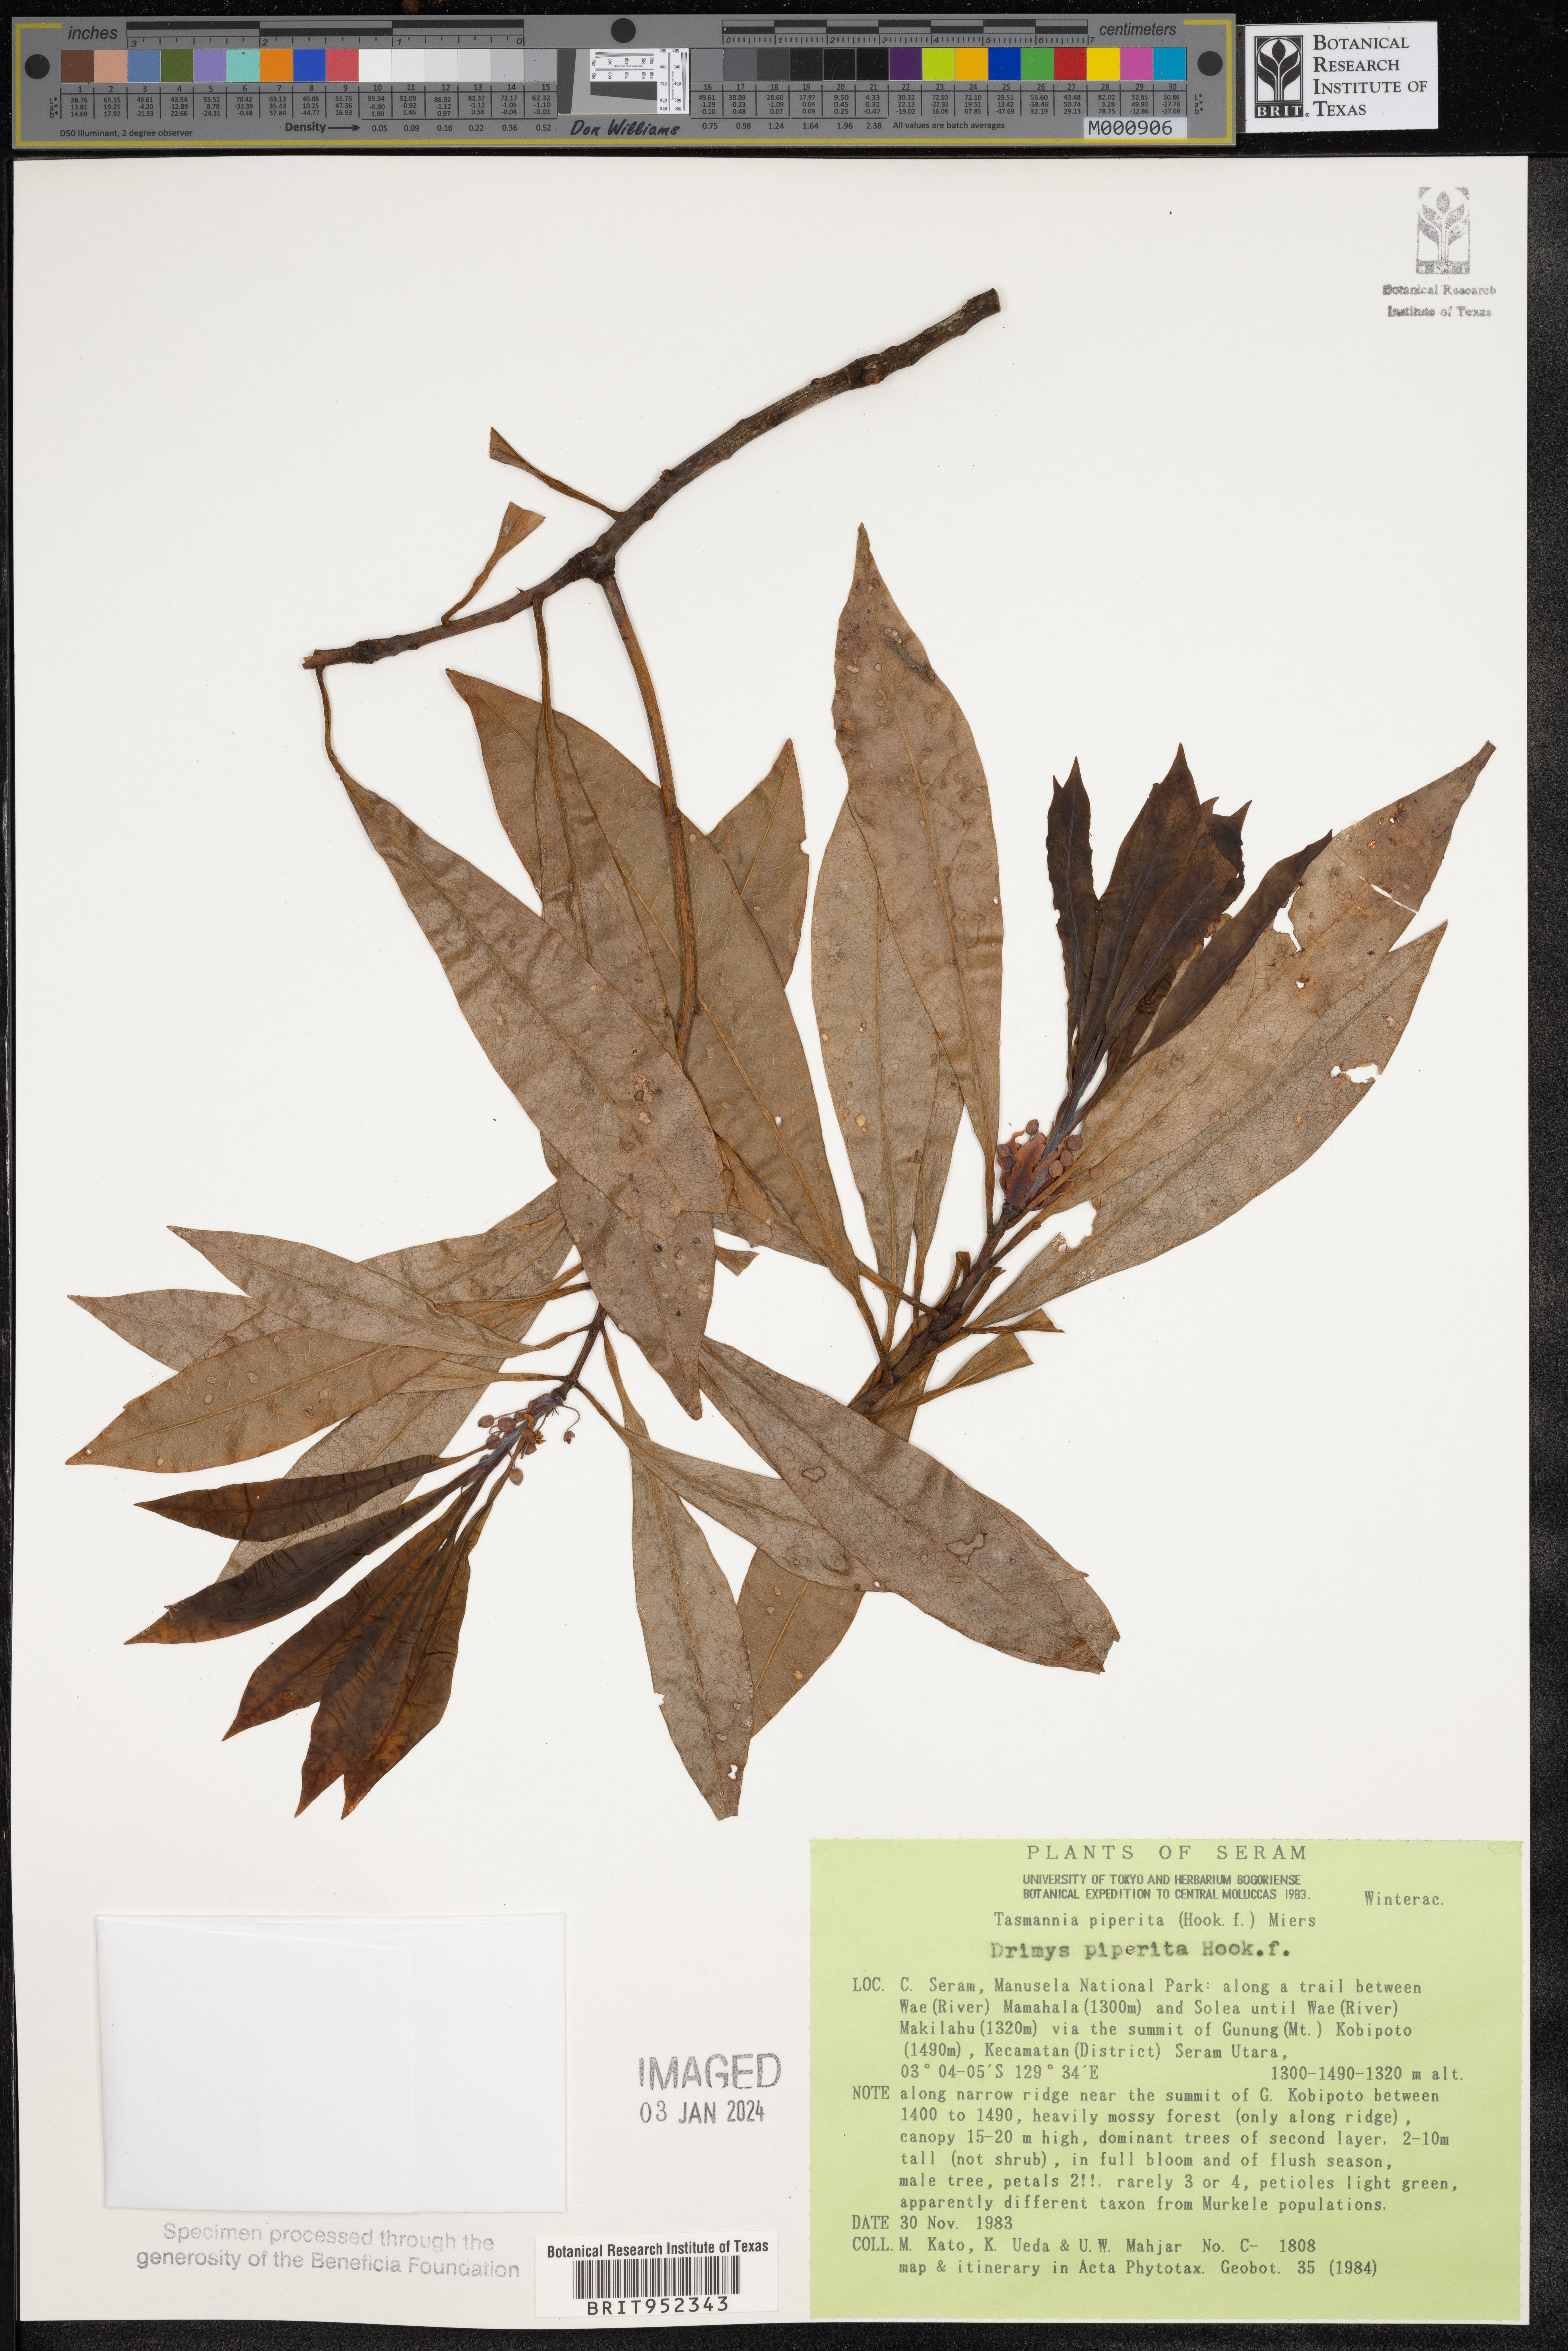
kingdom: Plantae
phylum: Tracheophyta
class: Magnoliopsida
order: Canellales
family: Winteraceae
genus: Drimys
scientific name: Drimys piperita
